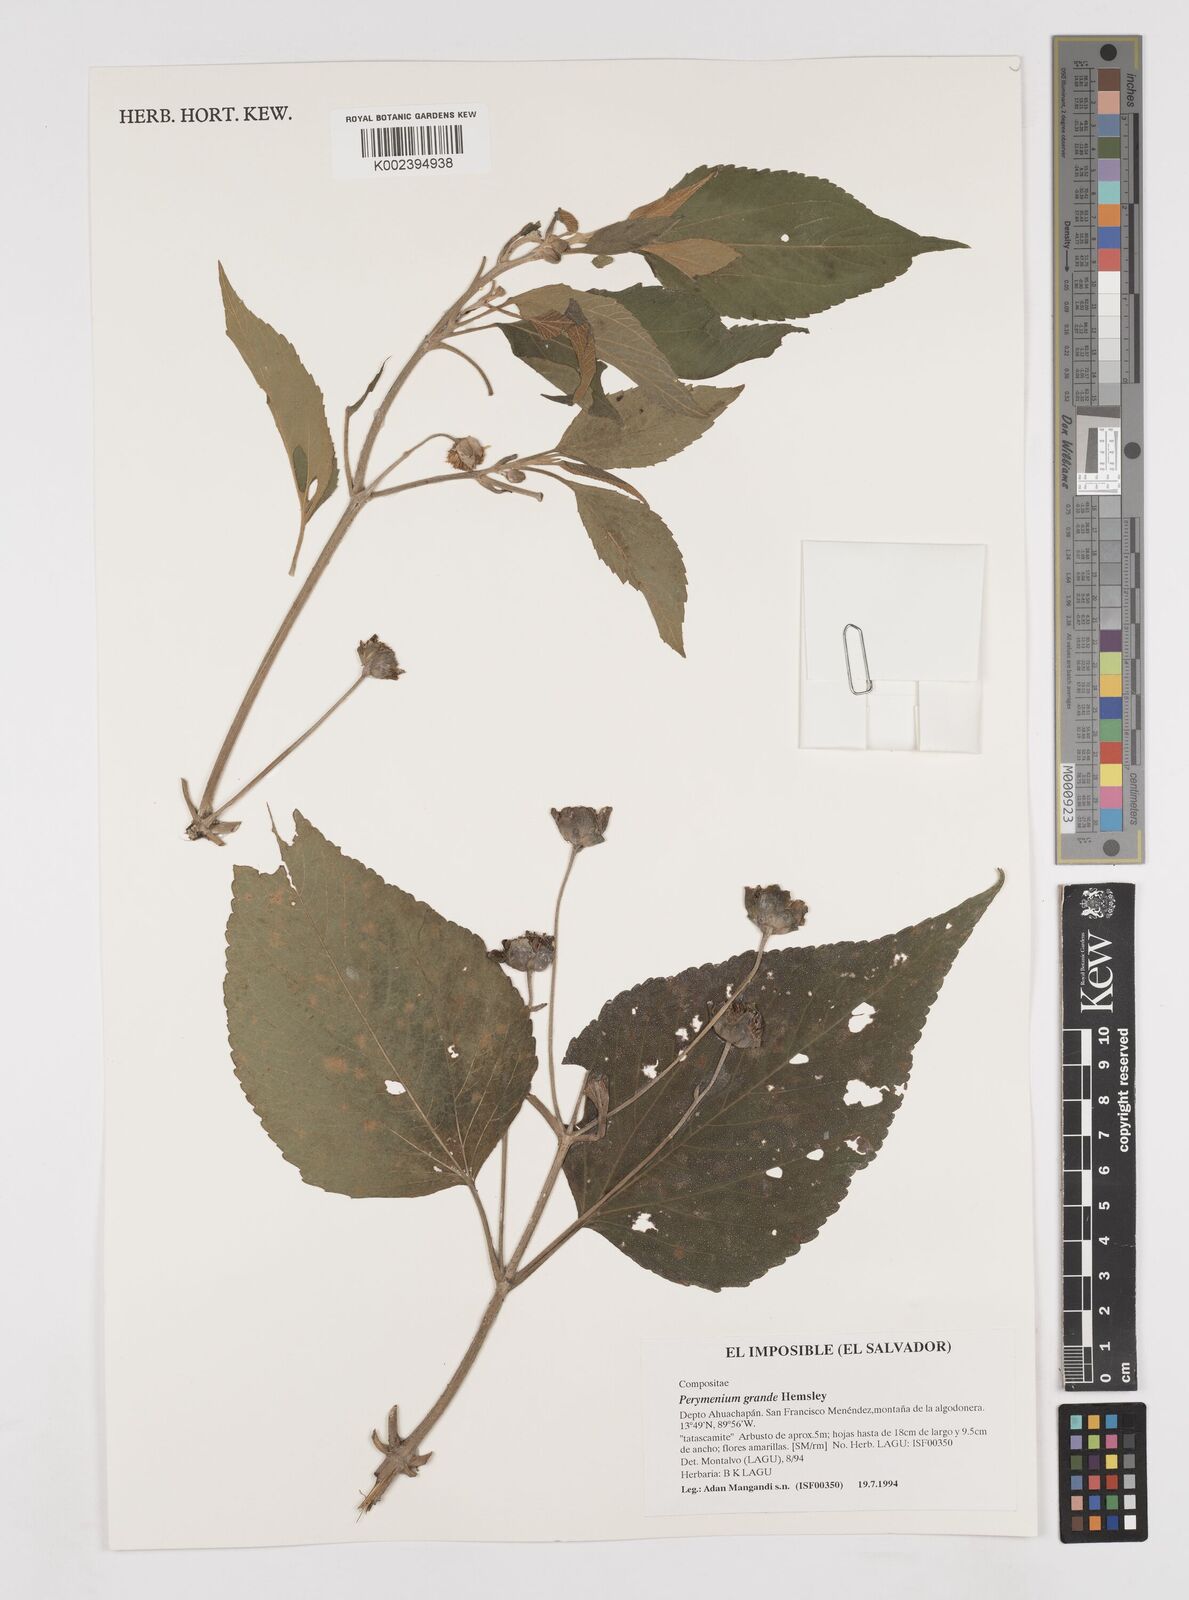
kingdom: Plantae
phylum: Tracheophyta
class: Magnoliopsida
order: Asterales
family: Asteraceae
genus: Perymenium
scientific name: Perymenium grande
